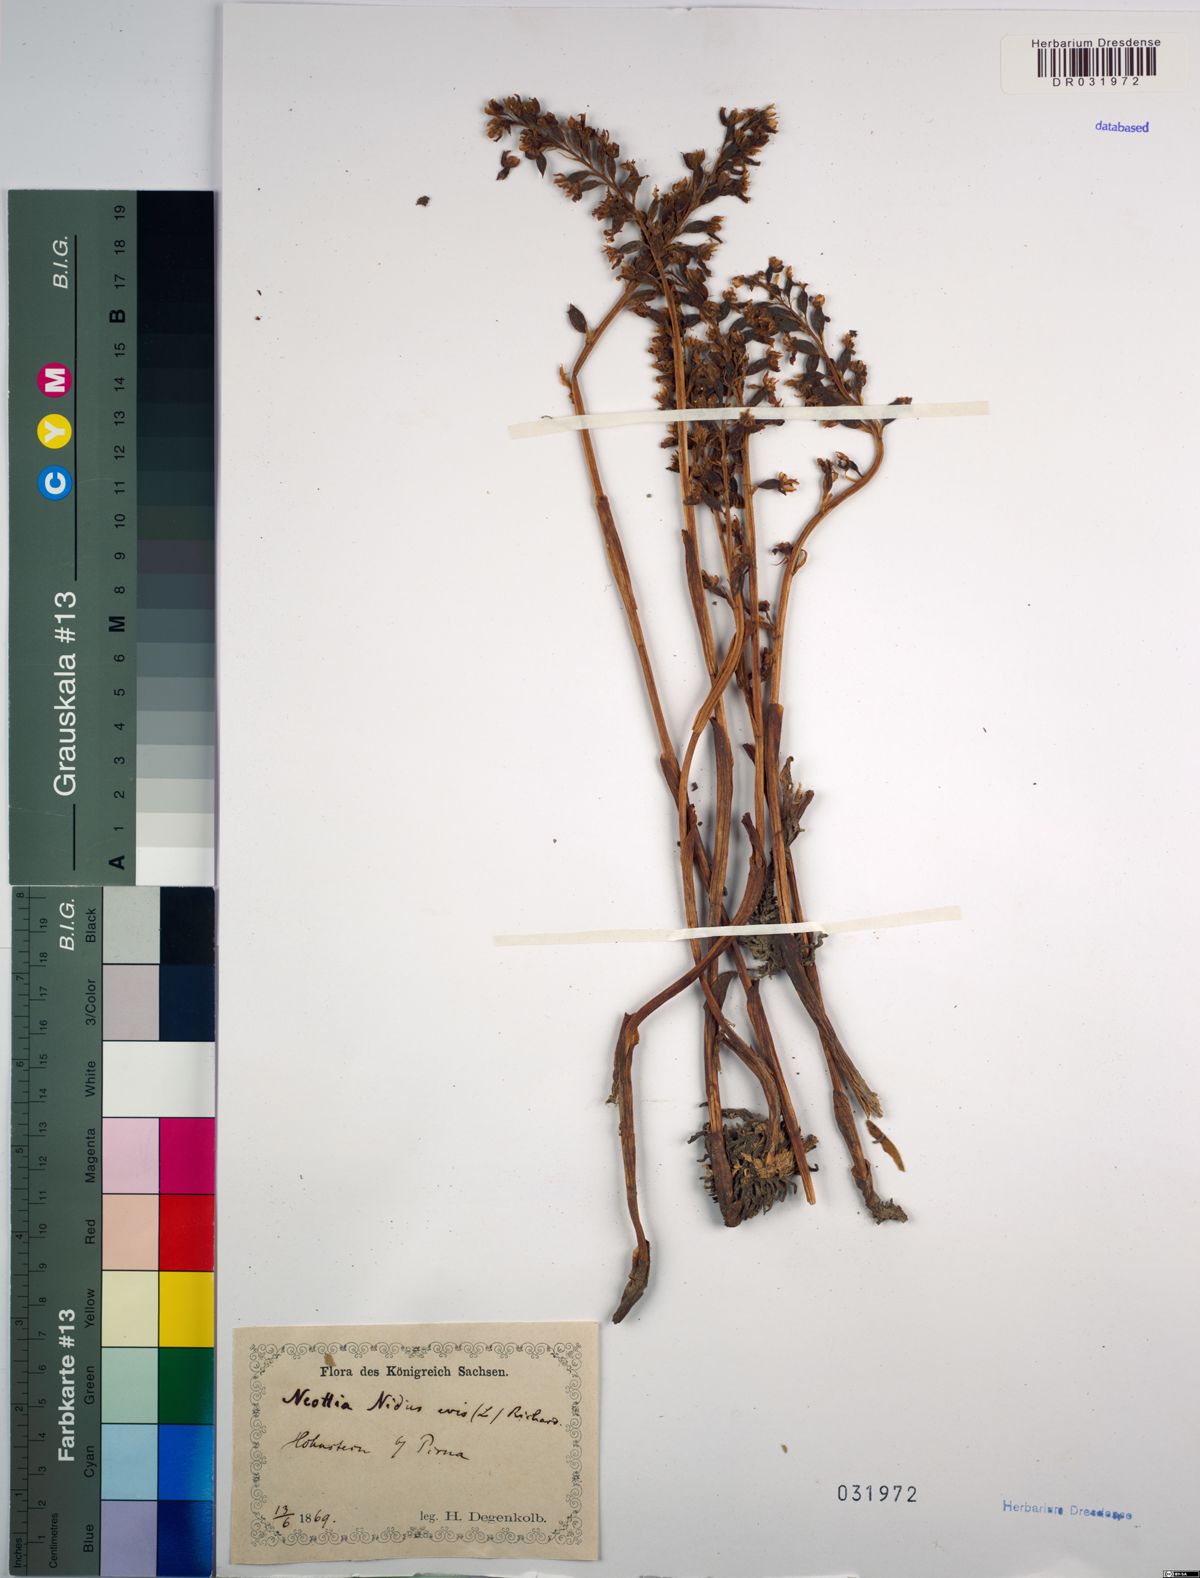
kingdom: Plantae
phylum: Tracheophyta
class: Liliopsida
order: Asparagales
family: Orchidaceae
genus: Neottia
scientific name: Neottia nidus-avis
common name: Bird's-nest orchid
